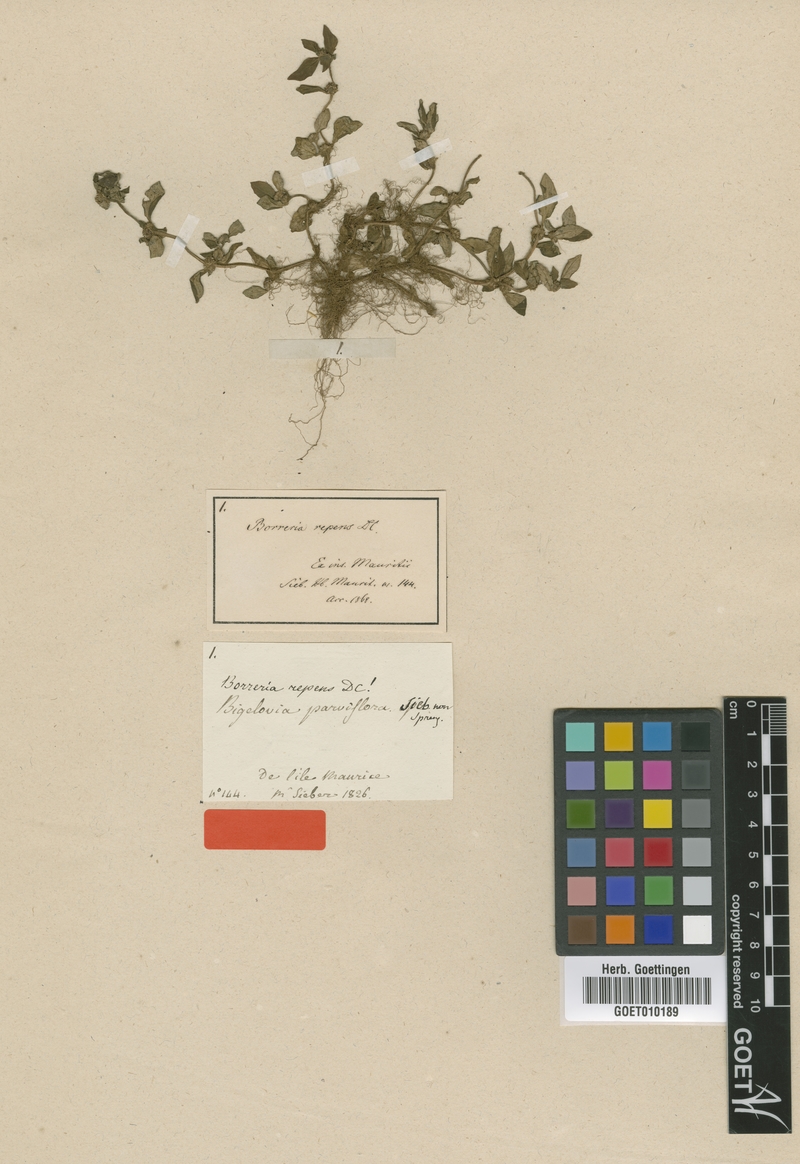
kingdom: Plantae
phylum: Tracheophyta
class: Magnoliopsida
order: Gentianales
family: Rubiaceae
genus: Spermacoce
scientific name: Spermacoce exilis
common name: Pacific false buttonweed
